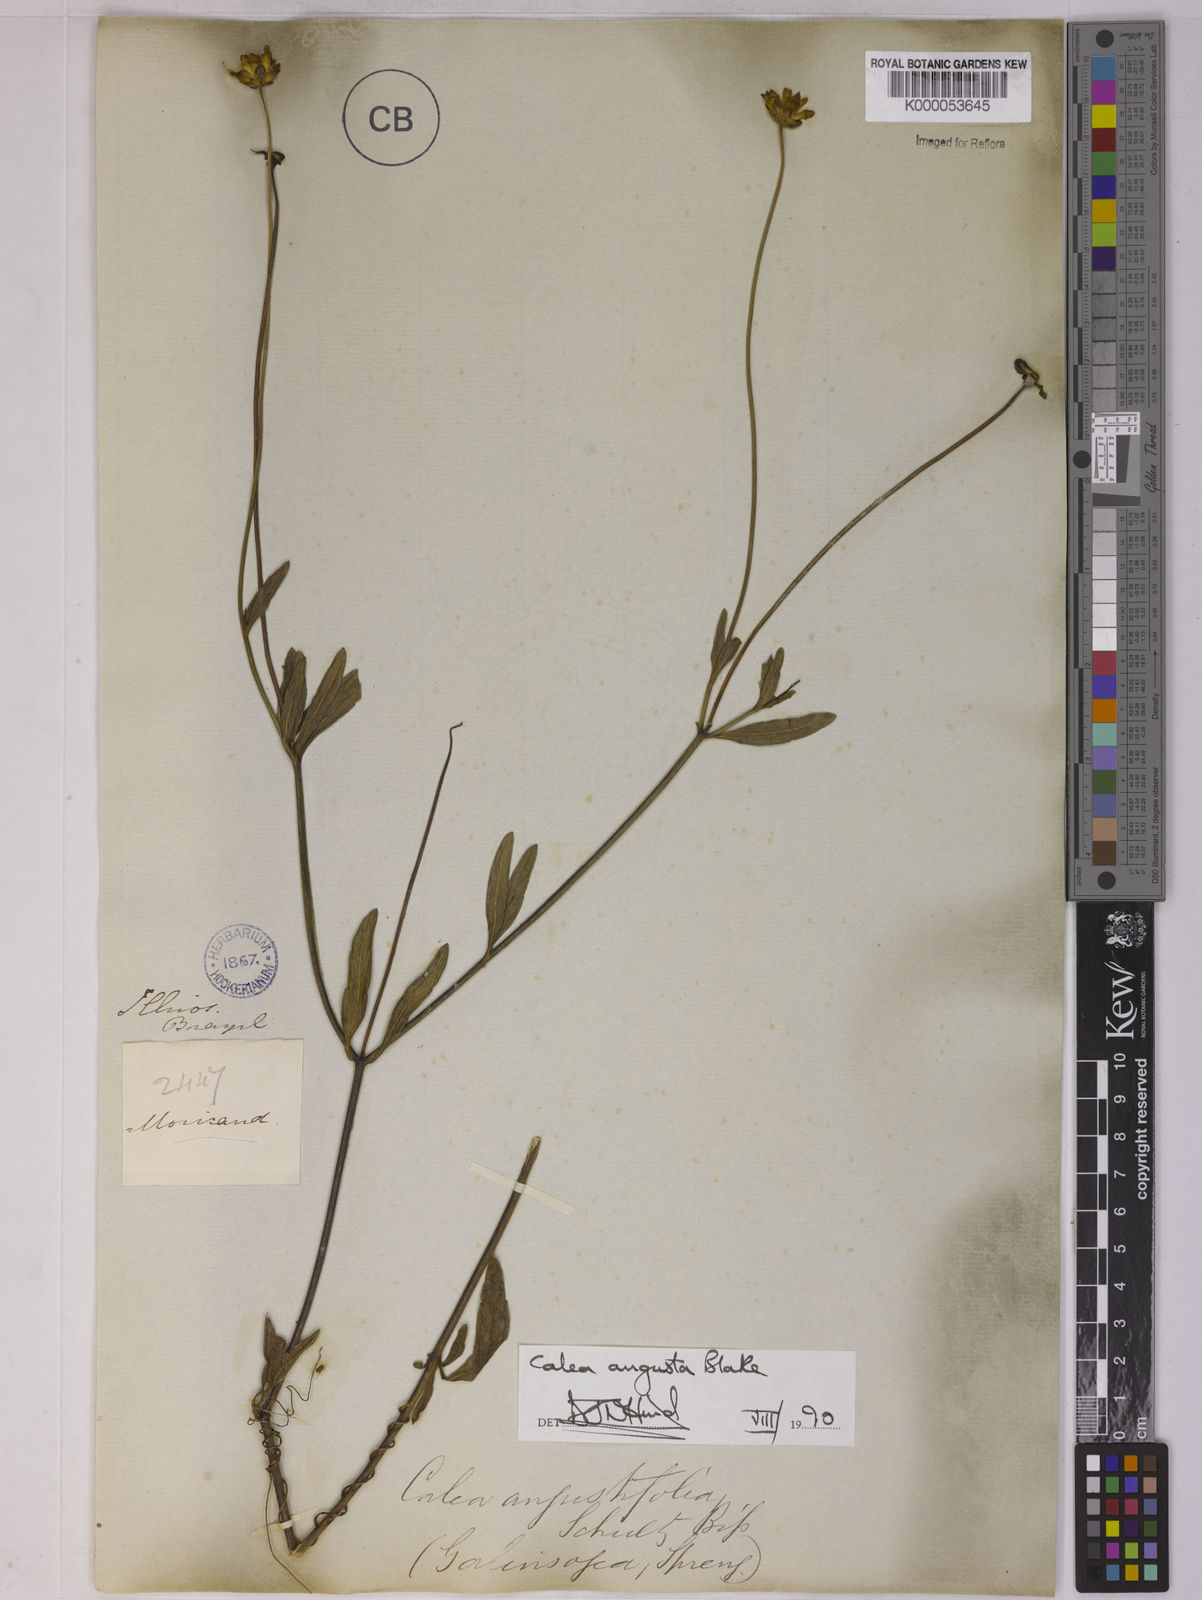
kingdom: Plantae
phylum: Tracheophyta
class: Magnoliopsida
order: Asterales
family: Asteraceae
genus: Calea
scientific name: Calea angusta
